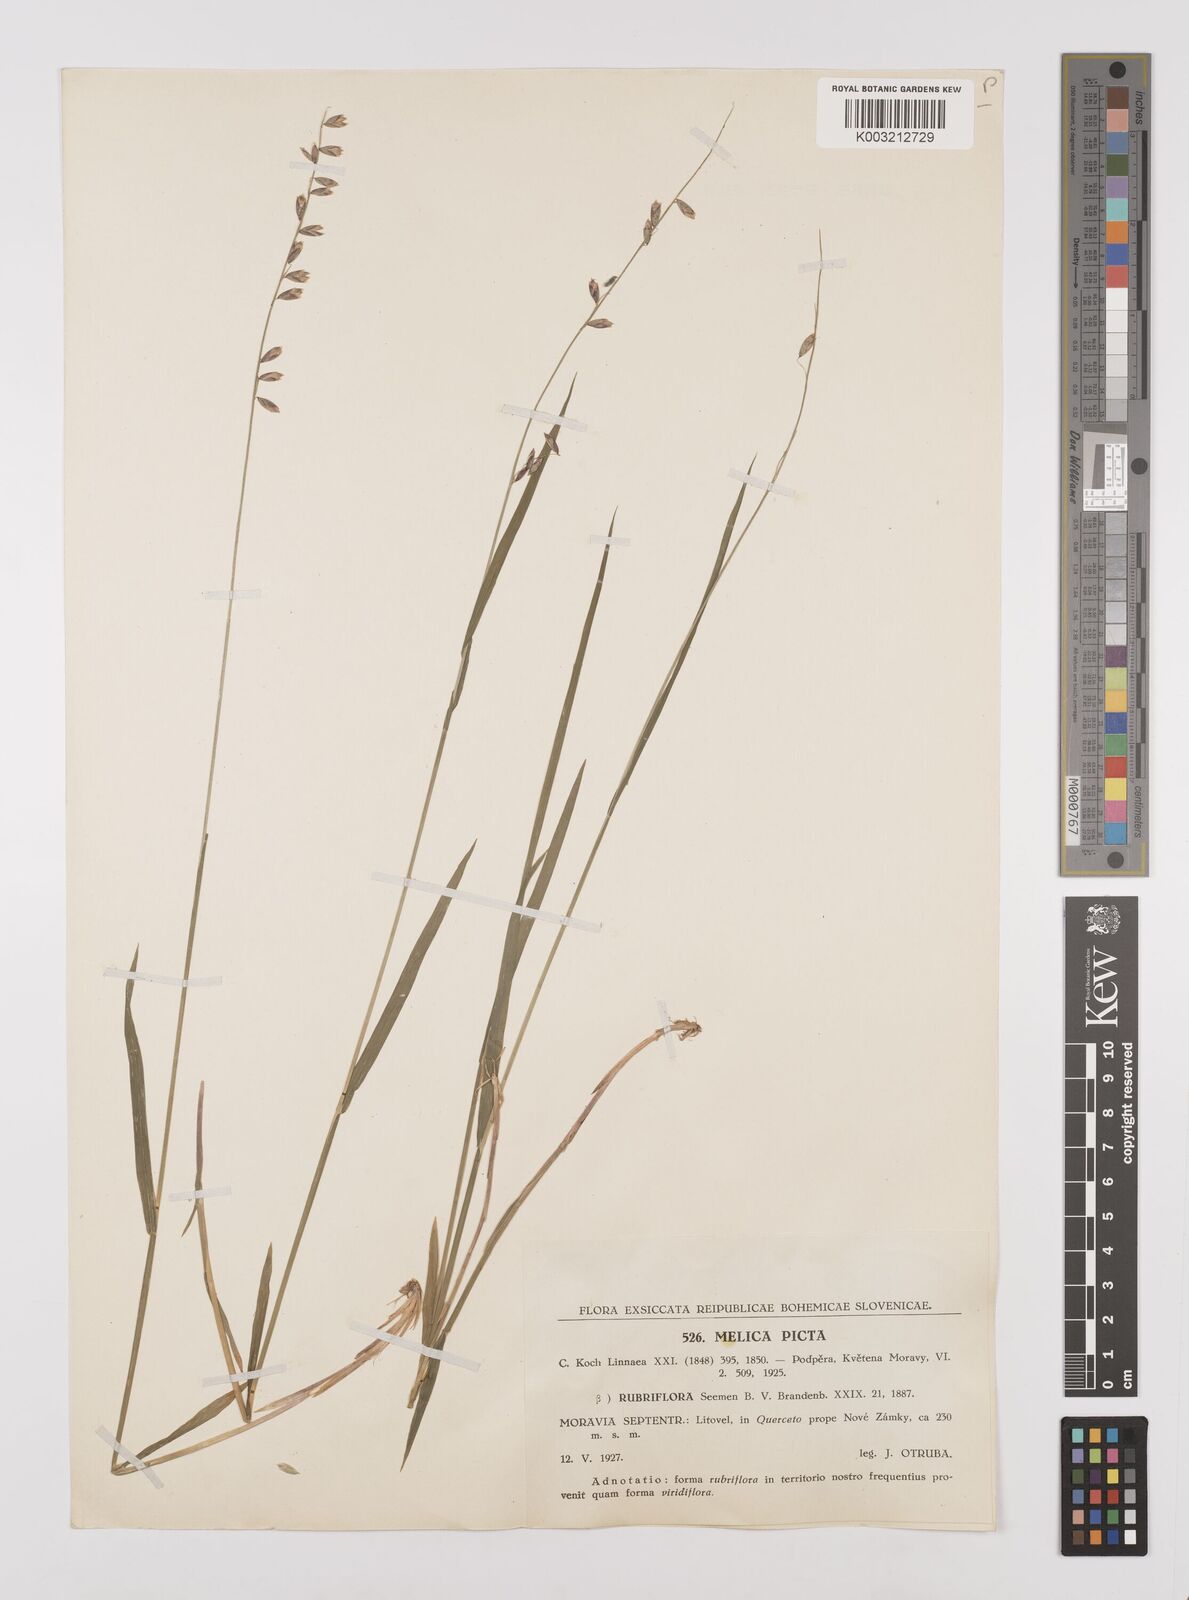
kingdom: Plantae
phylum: Tracheophyta
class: Liliopsida
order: Poales
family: Poaceae
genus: Melica
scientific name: Melica picta
